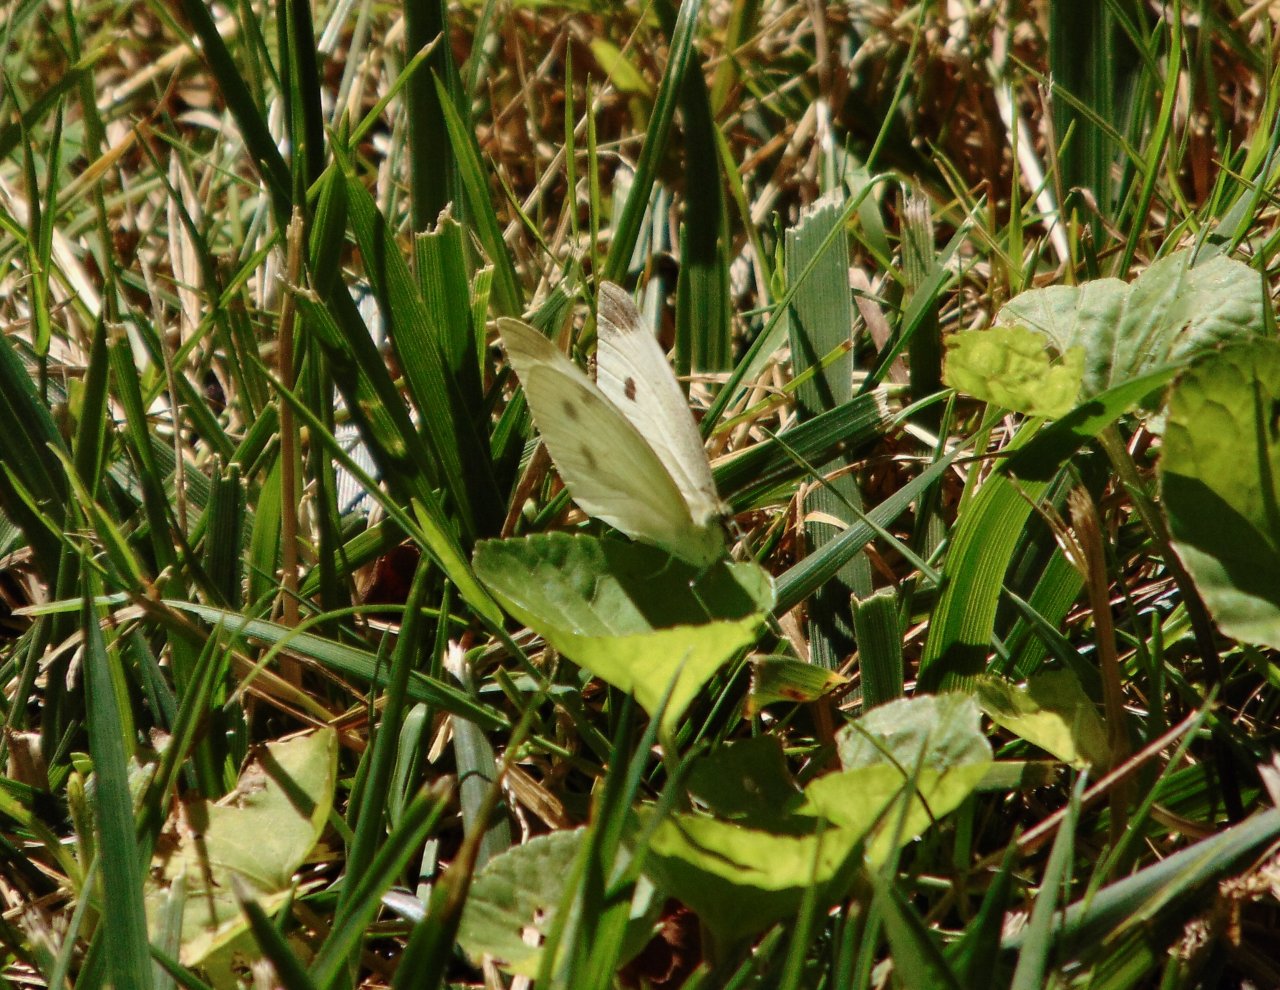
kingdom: Animalia
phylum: Arthropoda
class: Insecta
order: Lepidoptera
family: Pieridae
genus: Pieris
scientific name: Pieris rapae
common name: Cabbage White
